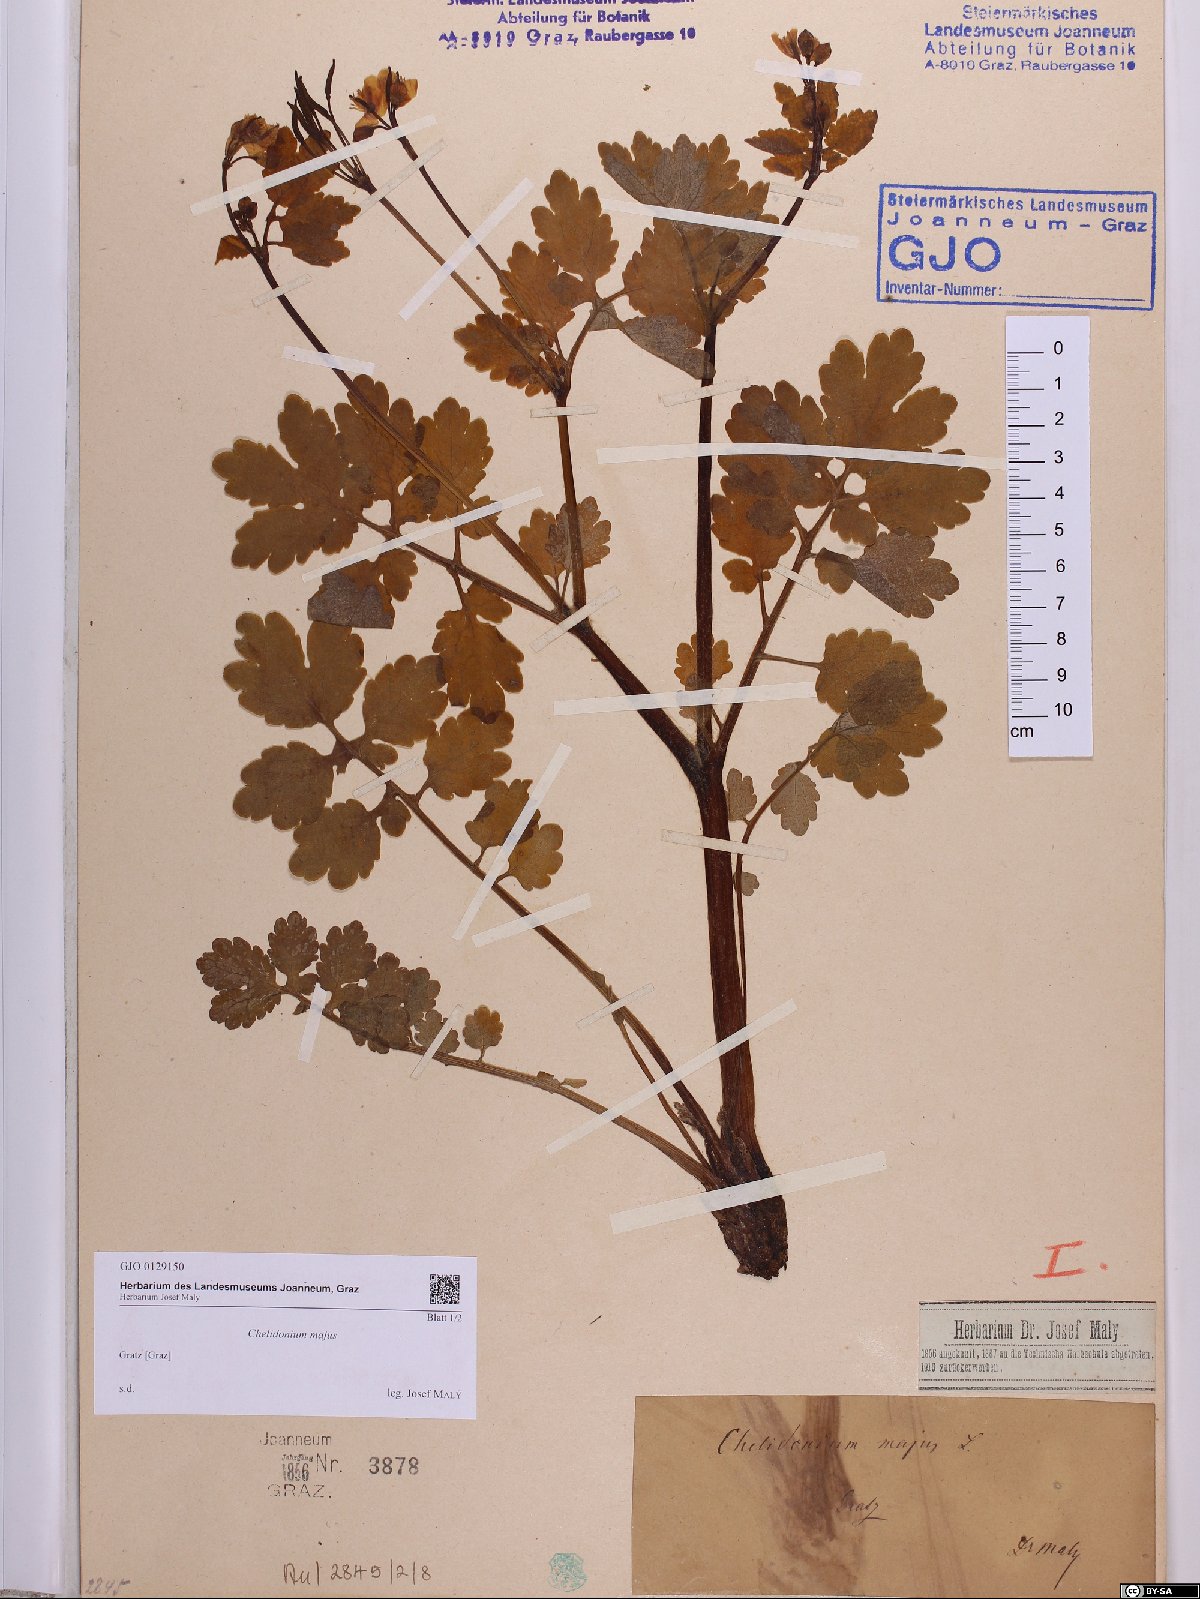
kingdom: Plantae
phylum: Tracheophyta
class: Magnoliopsida
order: Ranunculales
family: Papaveraceae
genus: Chelidonium
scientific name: Chelidonium majus
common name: Greater celandine
